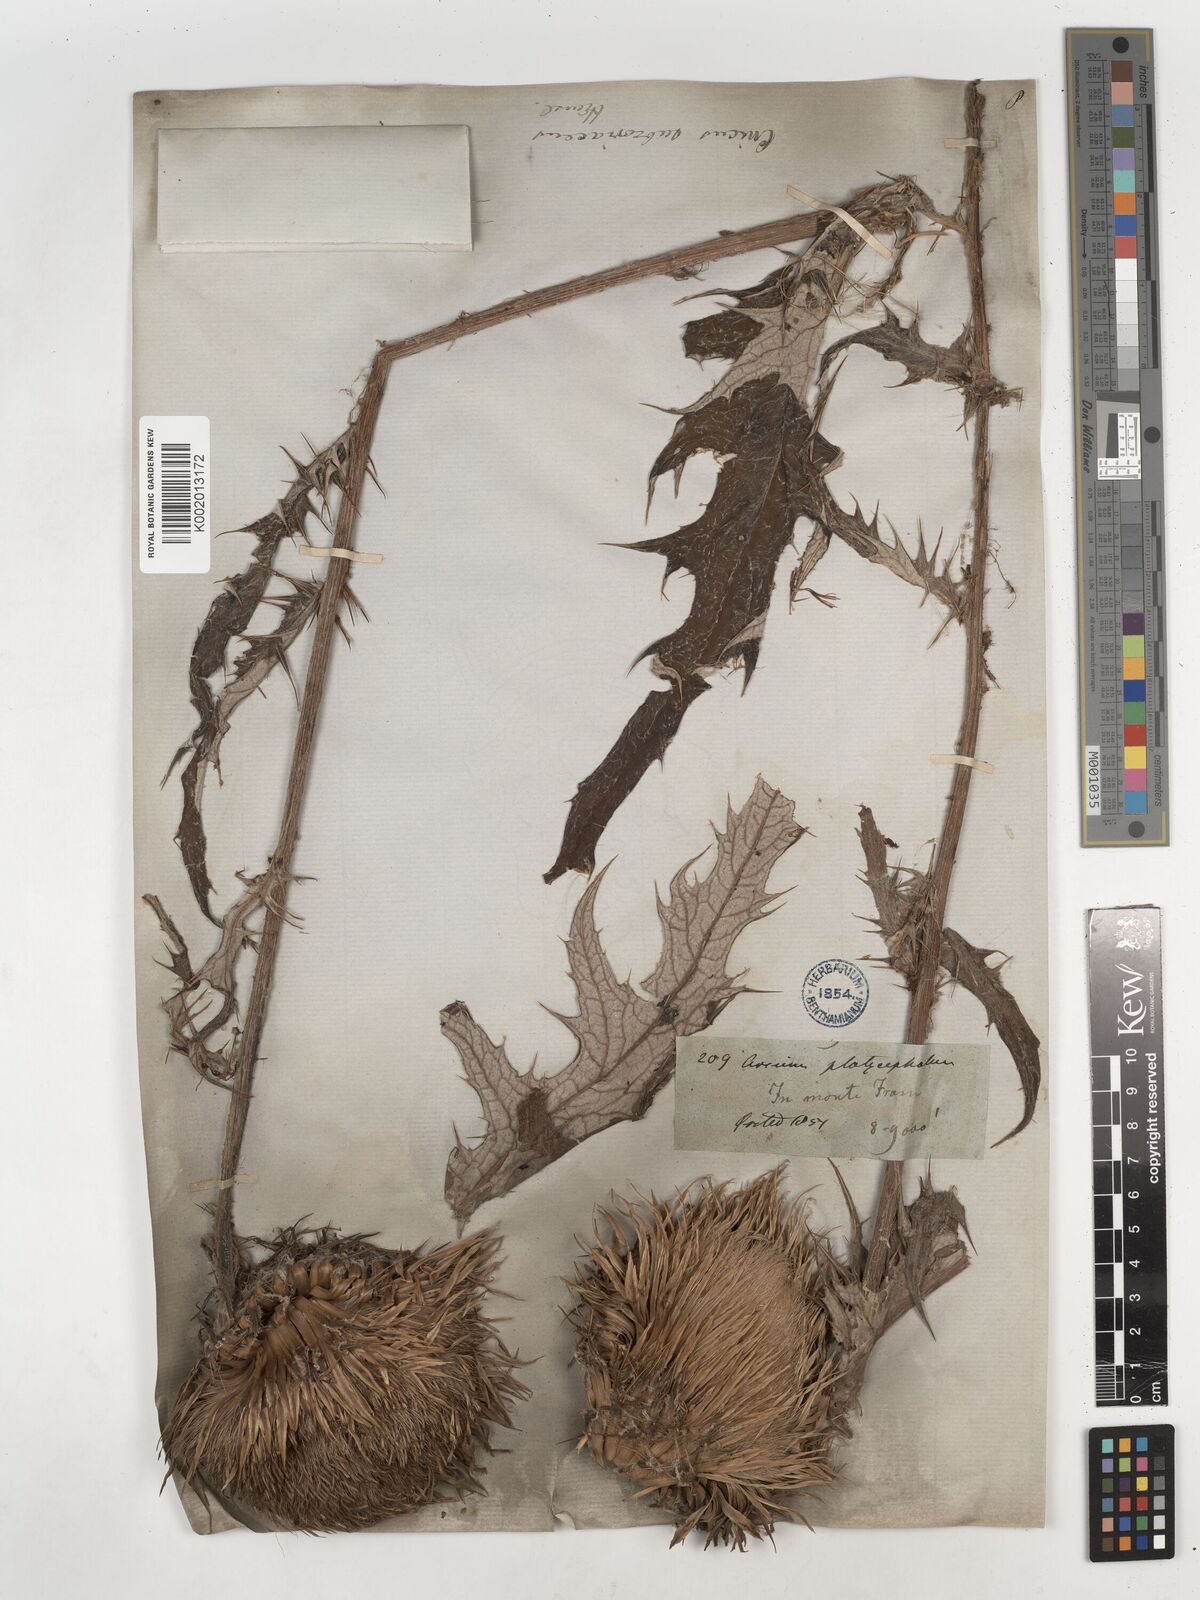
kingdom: Plantae
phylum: Tracheophyta
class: Magnoliopsida
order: Asterales
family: Asteraceae
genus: Cirsium
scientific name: Cirsium subcoriaceum
